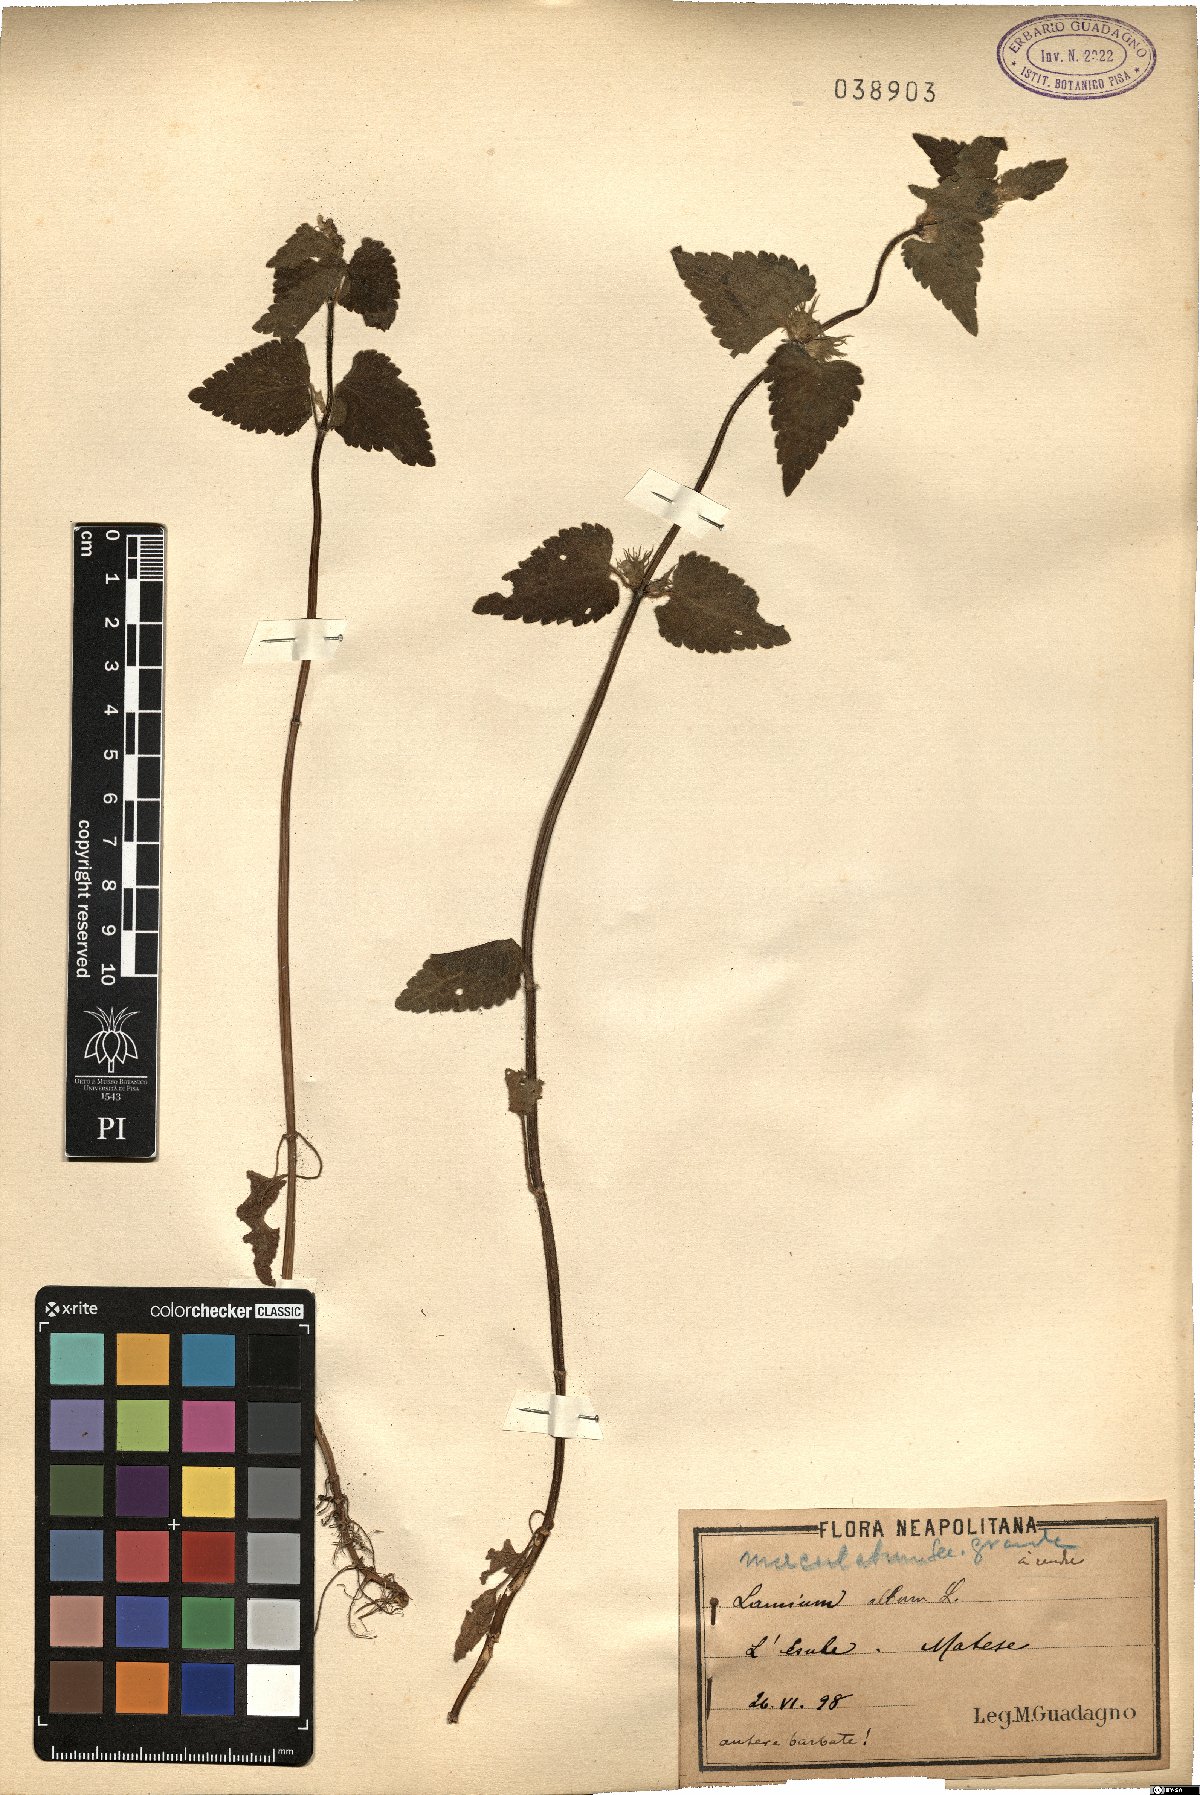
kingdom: Plantae
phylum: Tracheophyta
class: Magnoliopsida
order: Lamiales
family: Lamiaceae
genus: Lamium
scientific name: Lamium maculatum
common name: Spotted dead-nettle
